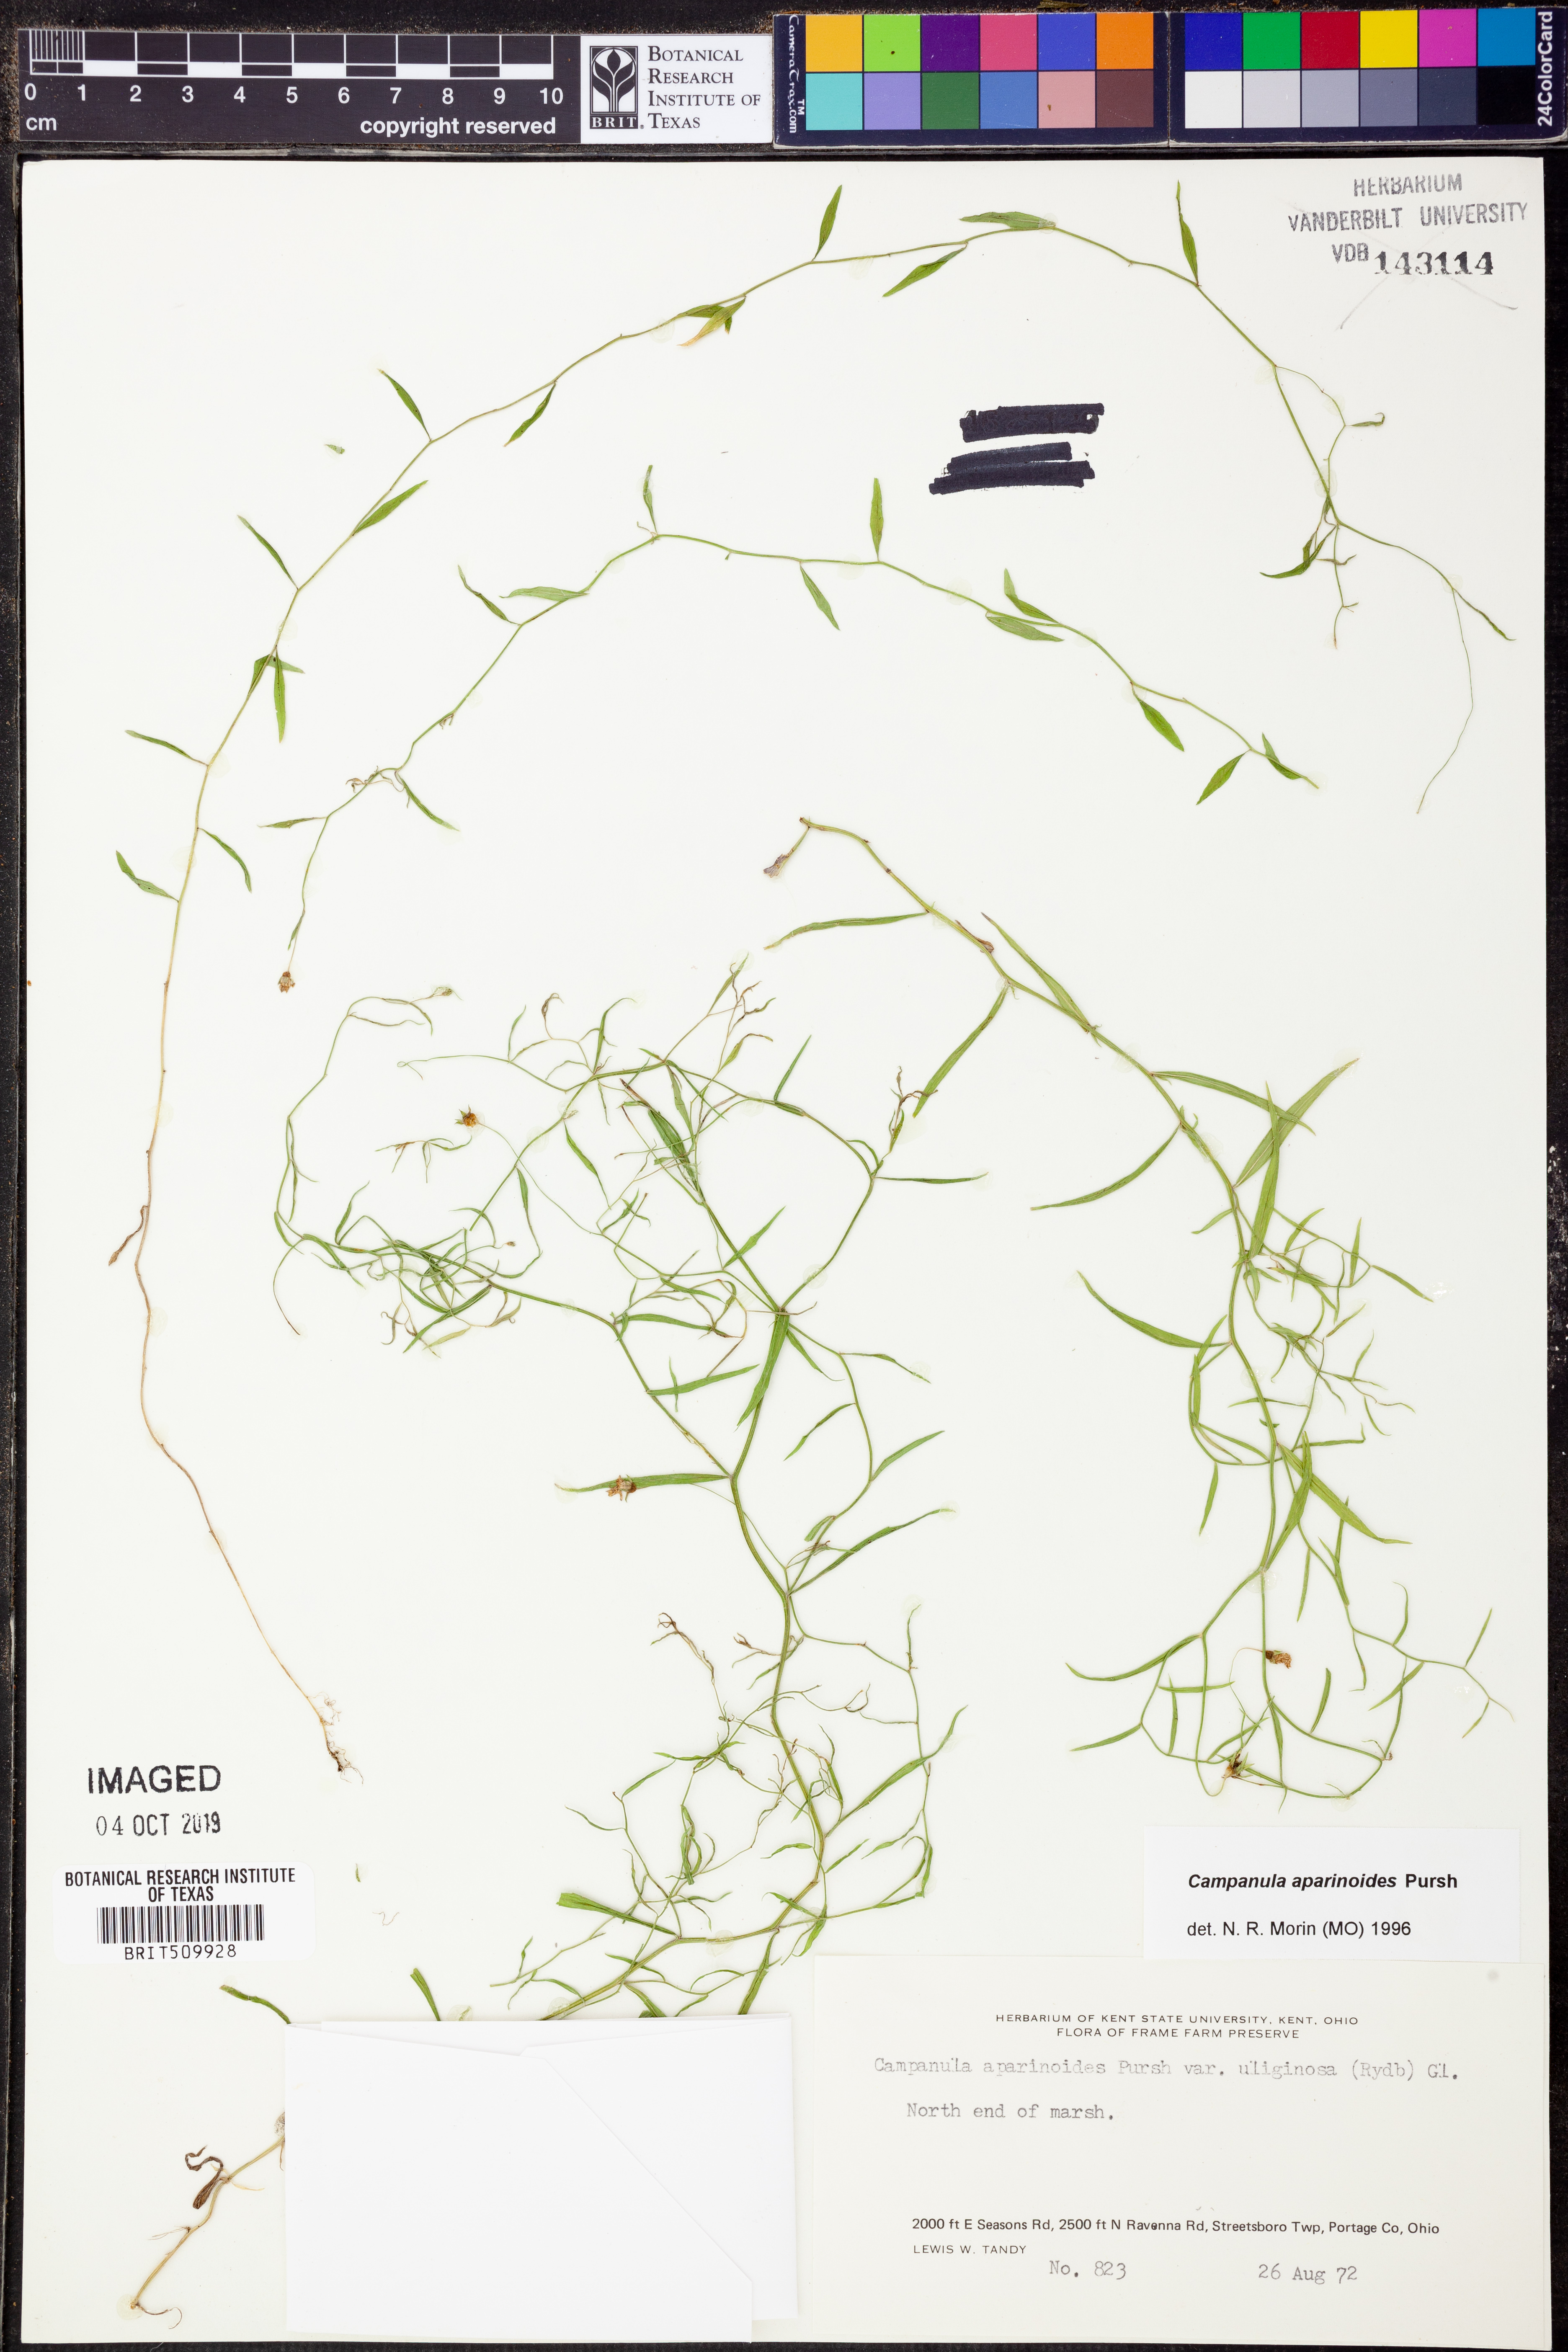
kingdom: Plantae
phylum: Tracheophyta
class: Magnoliopsida
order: Asterales
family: Campanulaceae
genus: Palustricodon
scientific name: Palustricodon aparinoides
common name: Bedstraw bellflower
